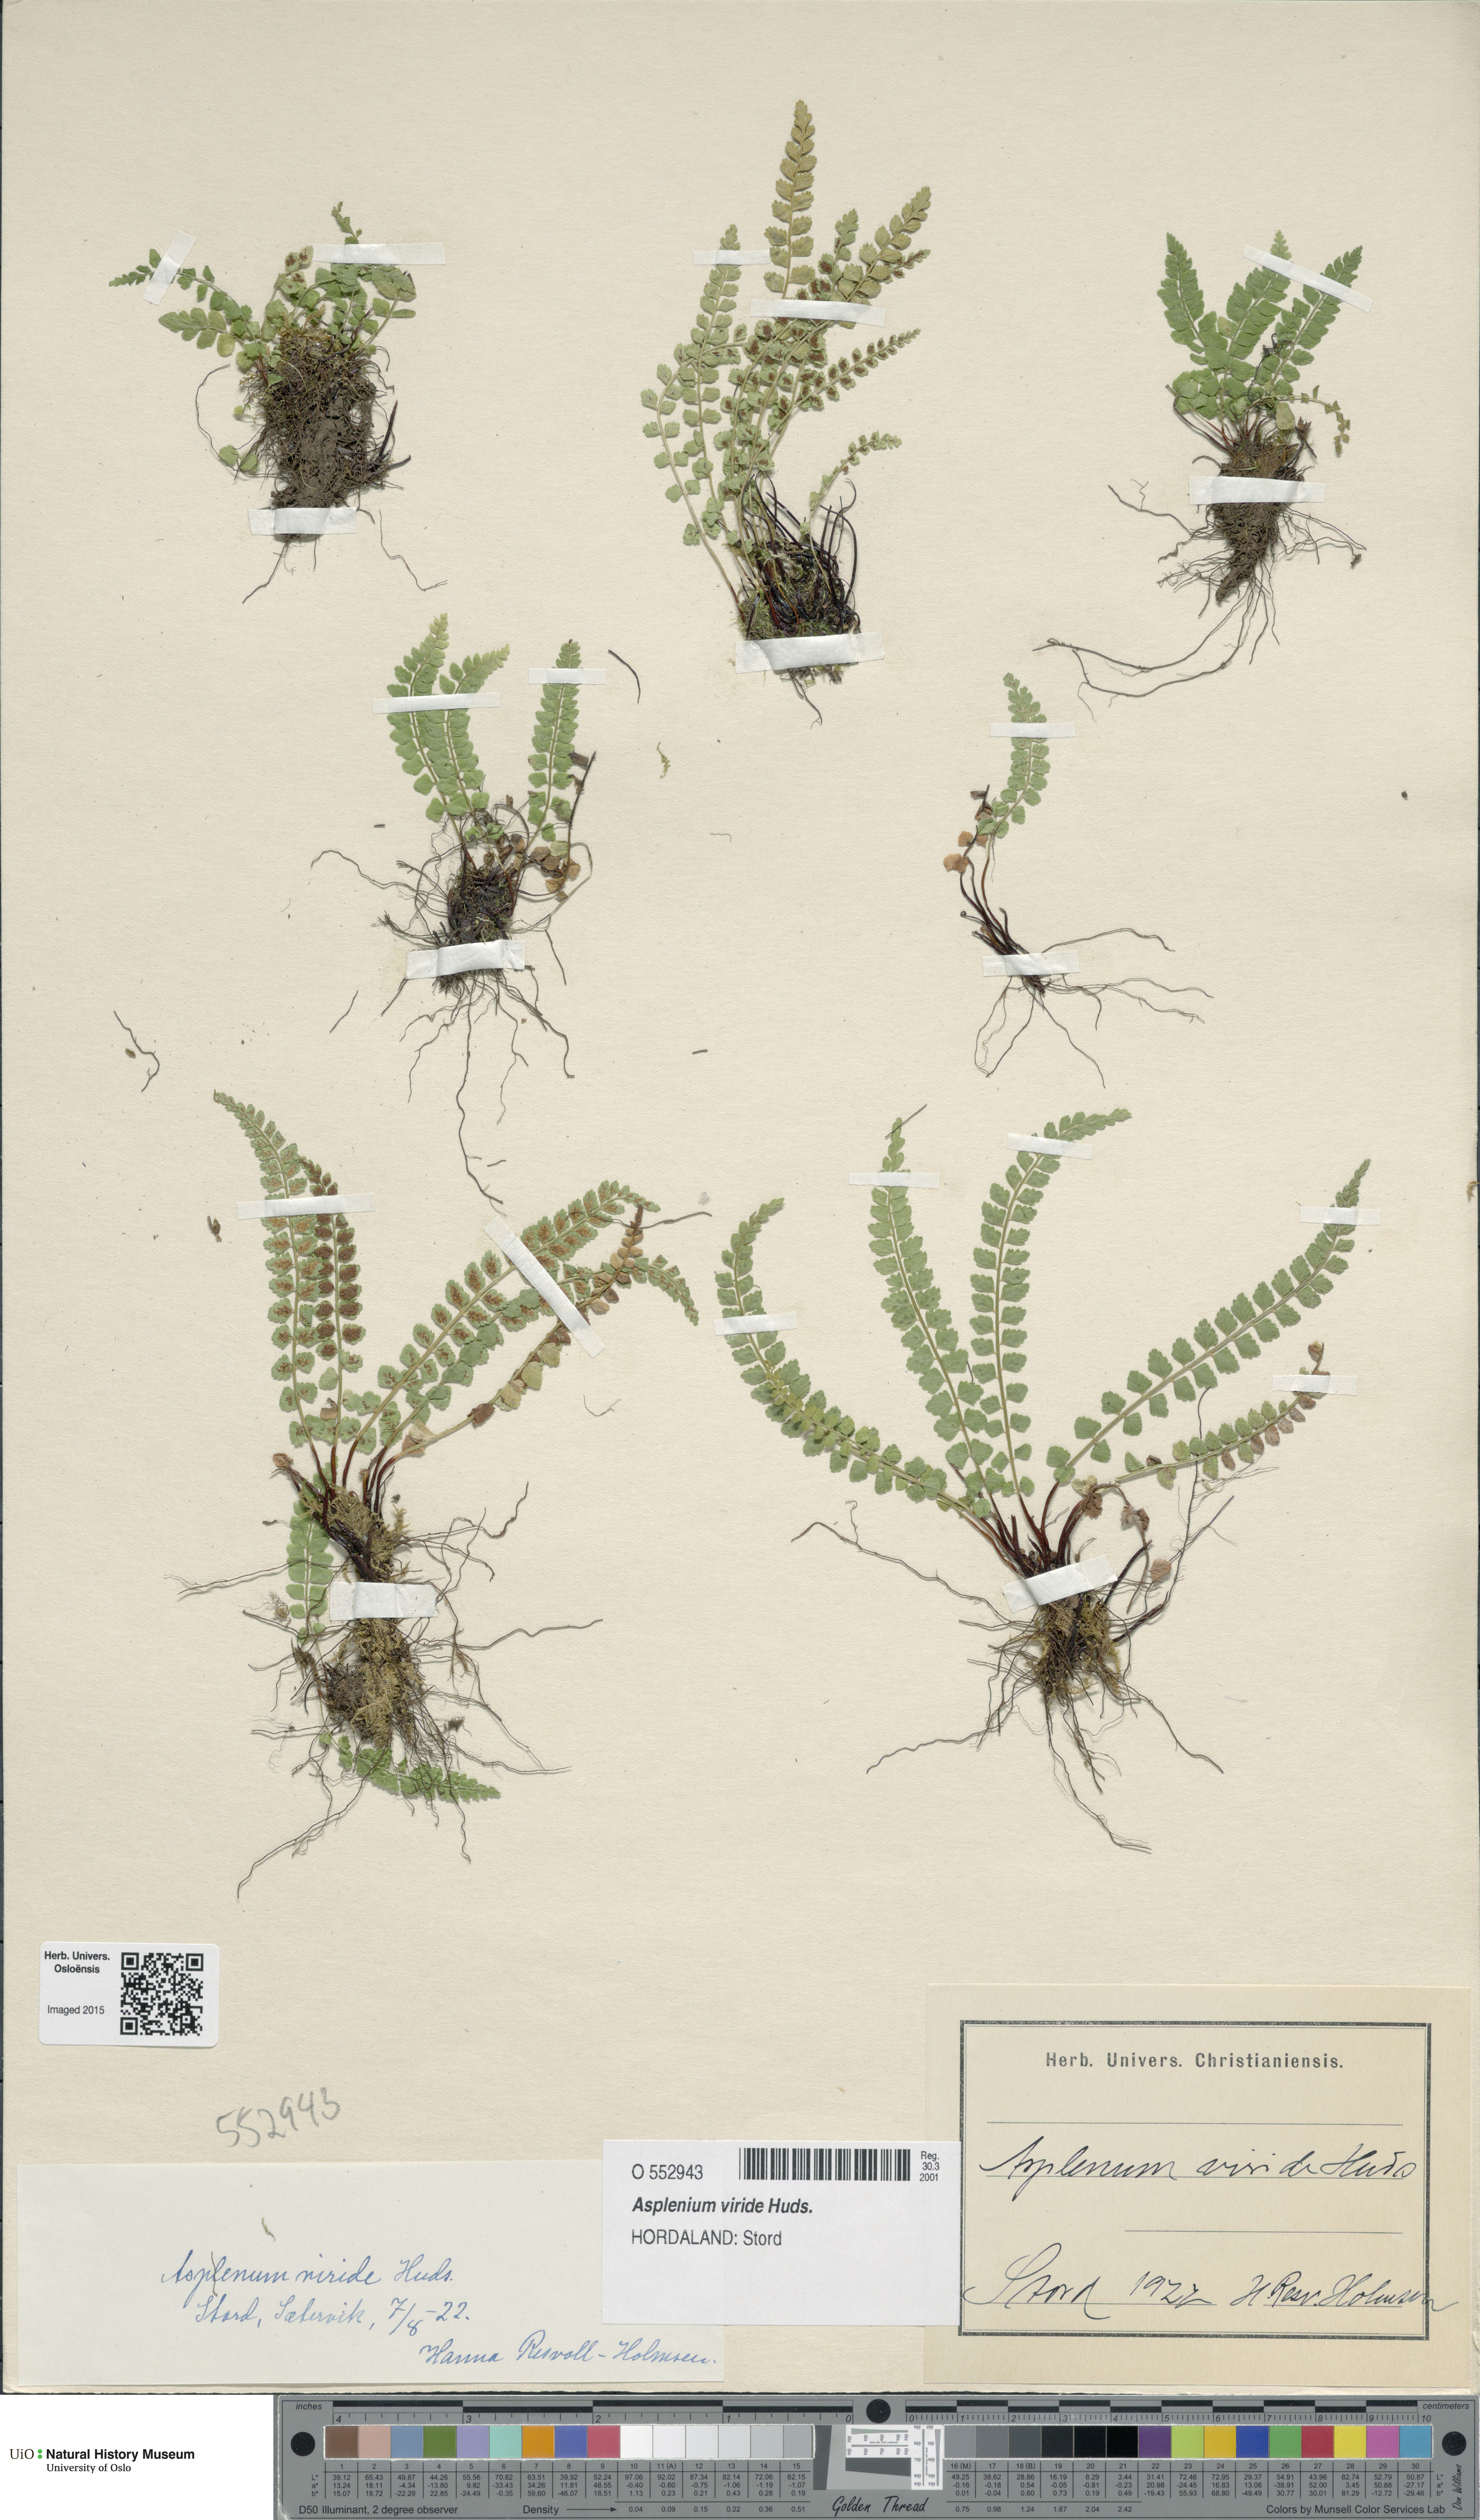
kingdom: Plantae
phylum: Tracheophyta
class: Polypodiopsida
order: Polypodiales
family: Aspleniaceae
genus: Asplenium
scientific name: Asplenium viride
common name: Green spleenwort
